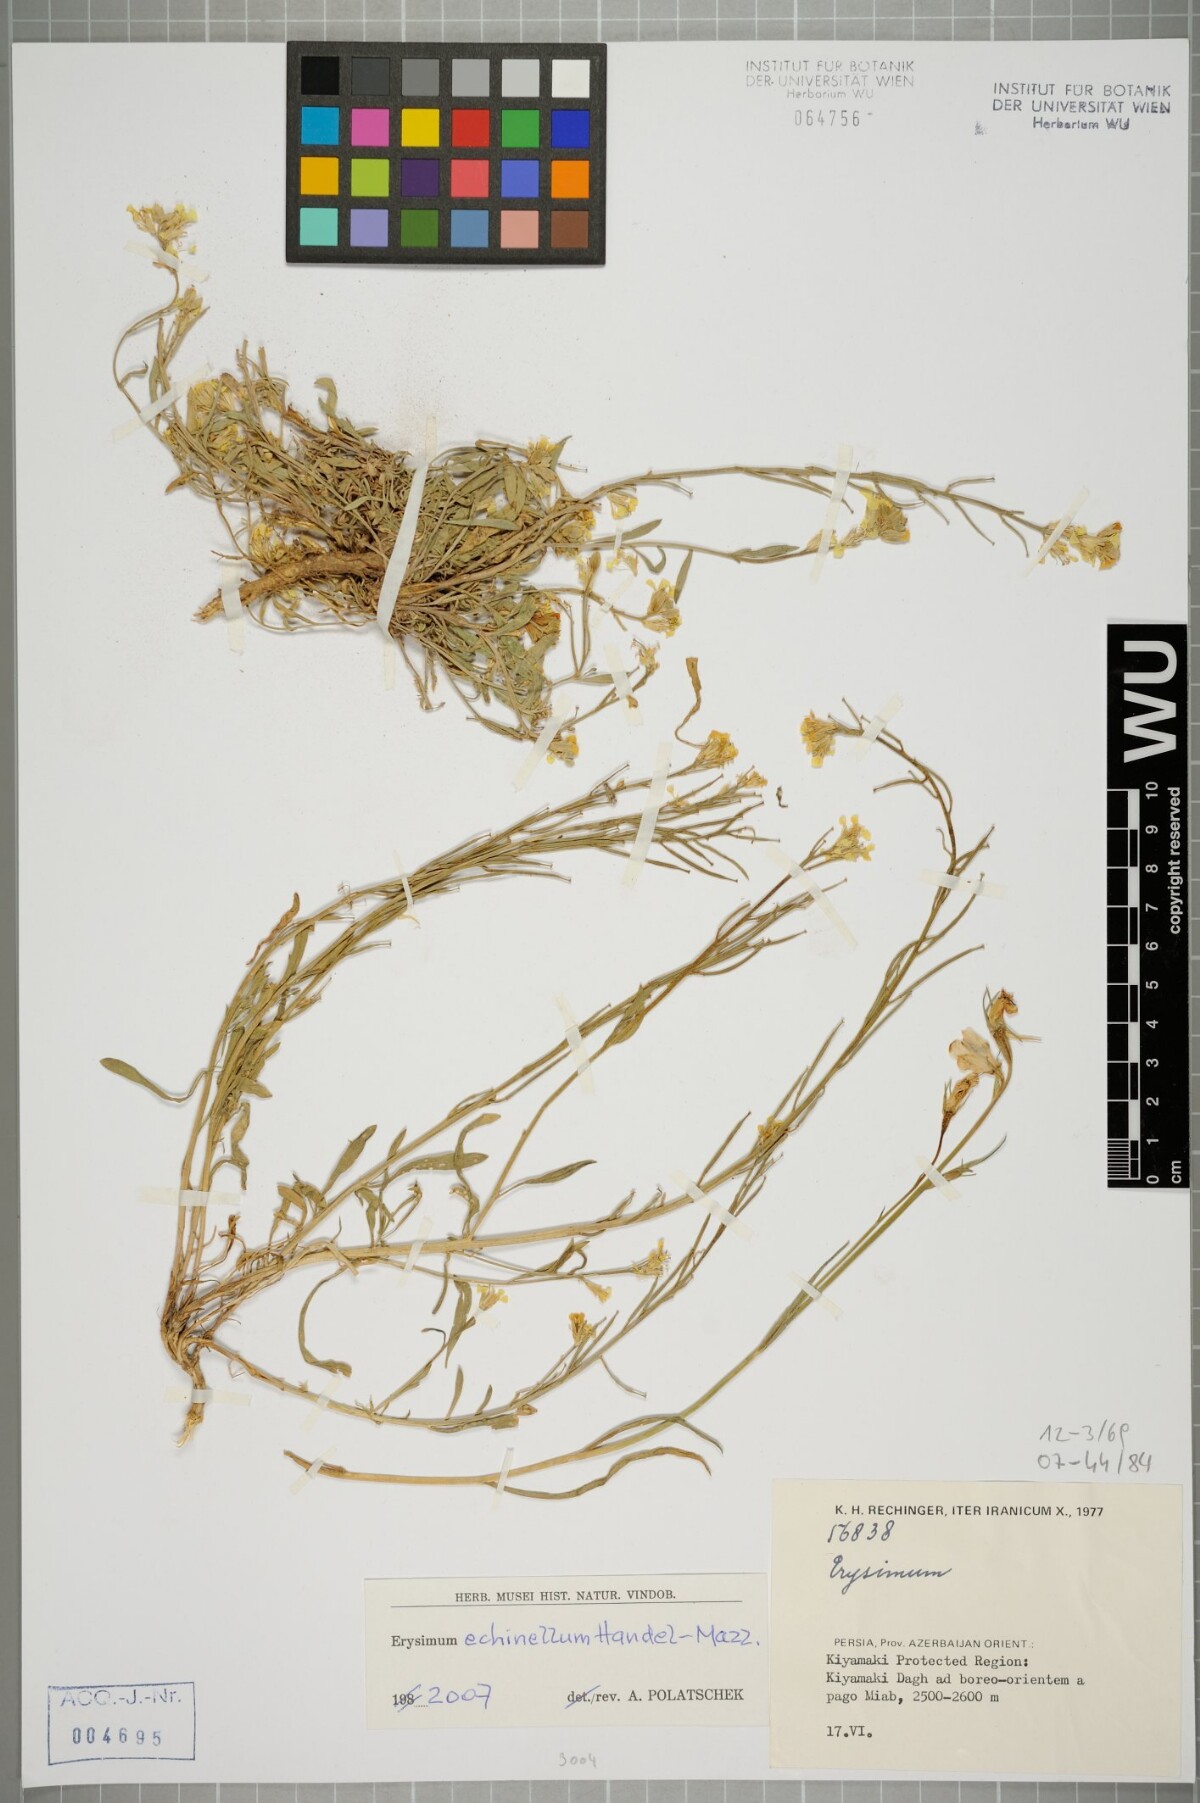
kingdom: Plantae
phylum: Tracheophyta
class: Magnoliopsida
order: Brassicales
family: Brassicaceae
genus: Erysimum
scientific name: Erysimum echinellum
